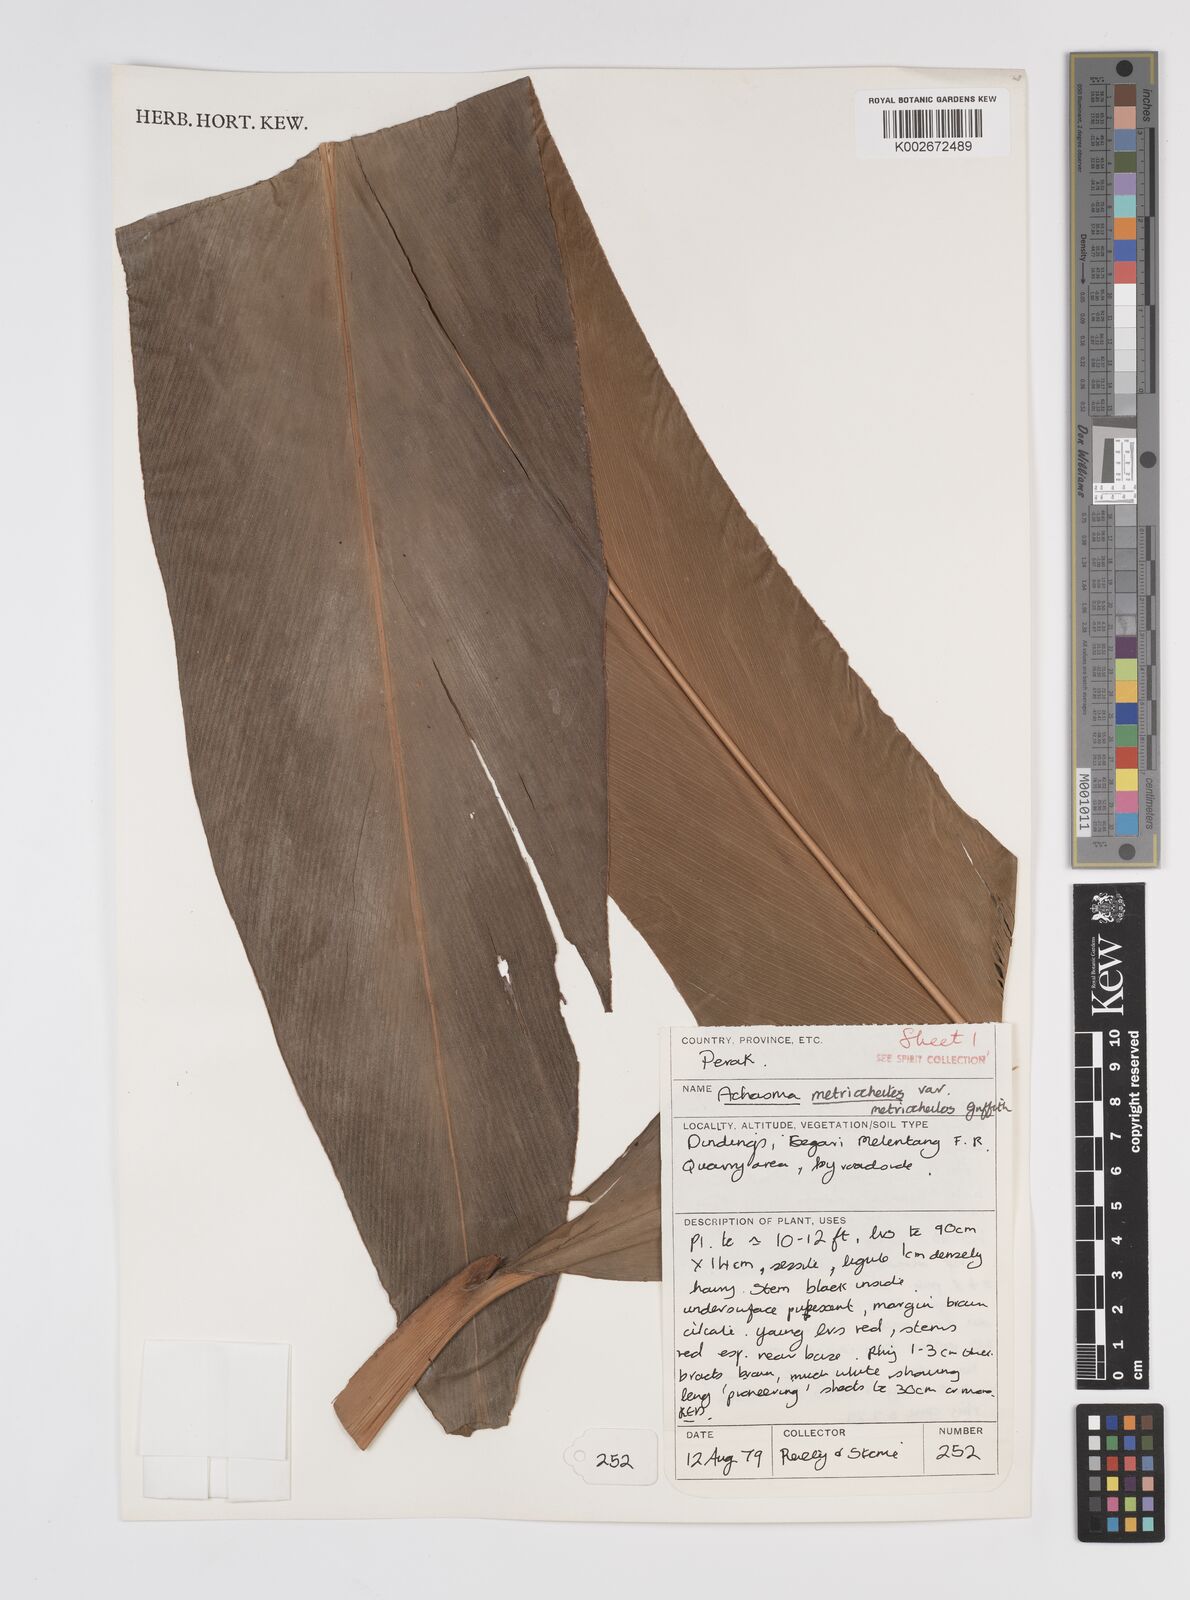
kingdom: Plantae
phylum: Tracheophyta
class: Liliopsida
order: Zingiberales
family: Zingiberaceae
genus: Etlingera
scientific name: Etlingera metriocheilos
